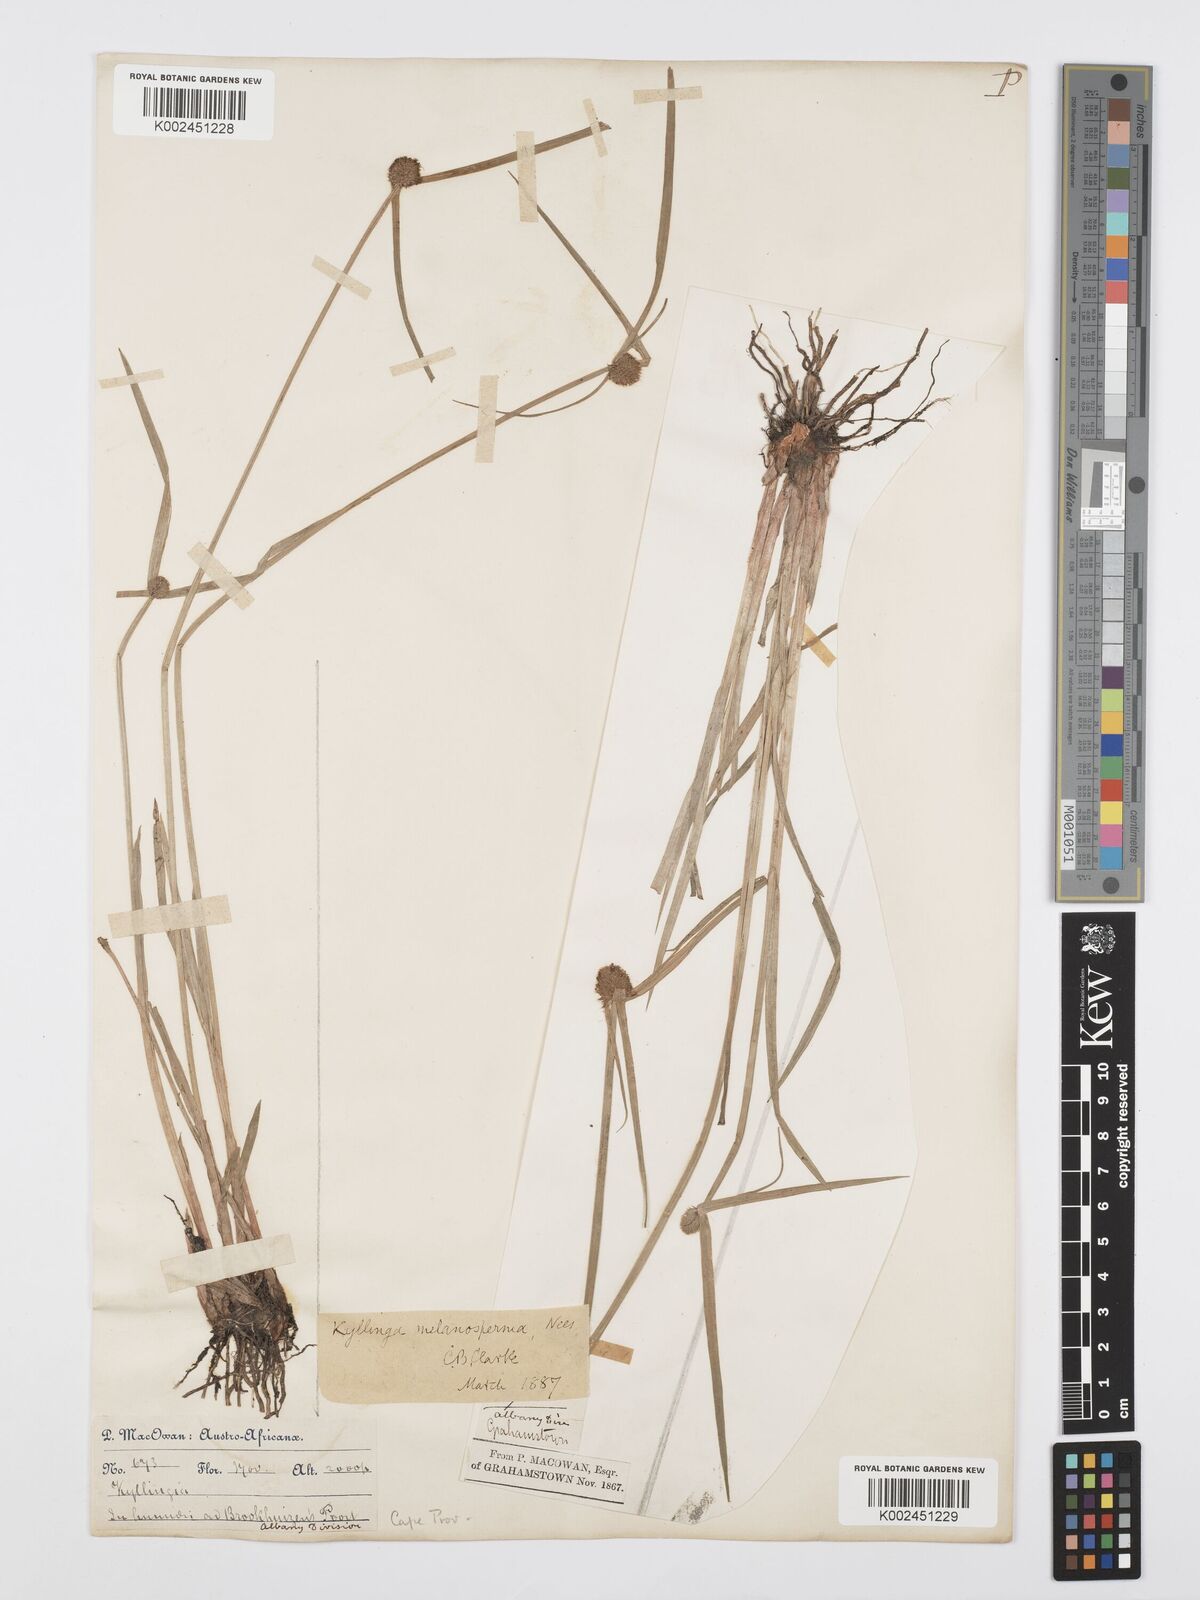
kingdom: Plantae
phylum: Tracheophyta
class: Liliopsida
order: Poales
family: Cyperaceae
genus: Cyperus
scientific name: Cyperus melanospermus
